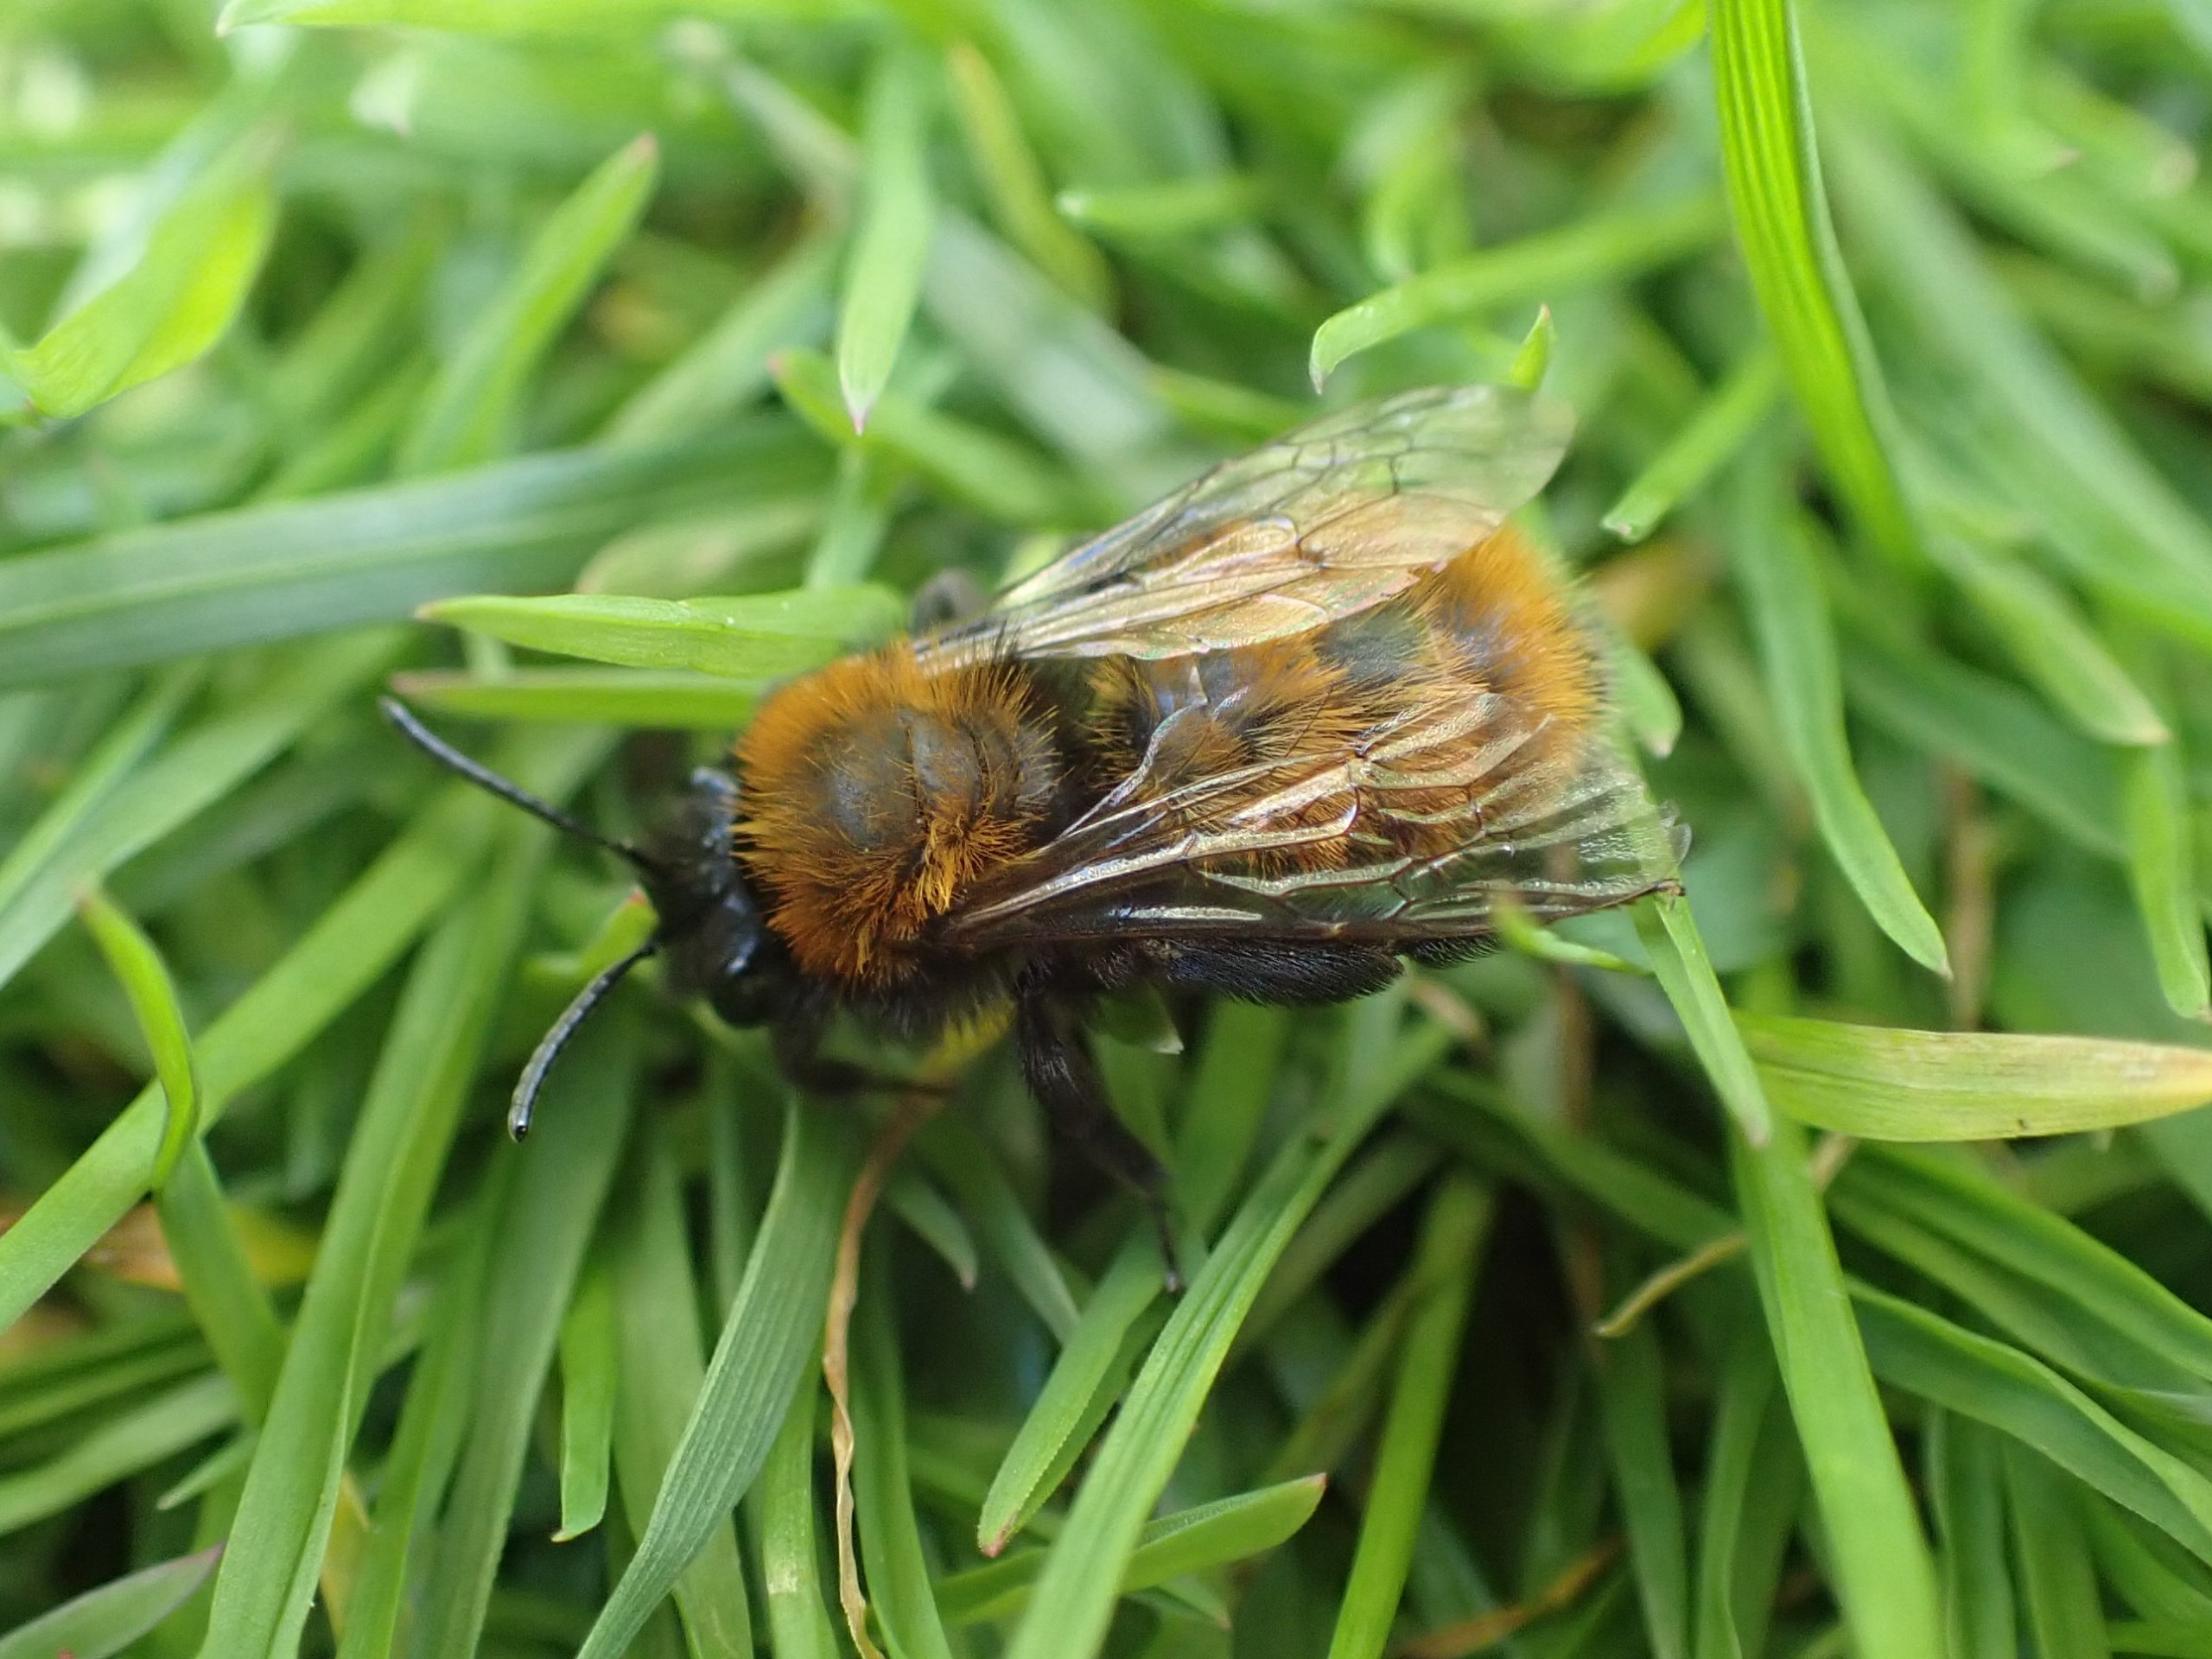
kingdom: Animalia
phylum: Arthropoda
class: Insecta
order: Hymenoptera
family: Andrenidae
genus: Andrena
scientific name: Andrena fulva
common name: Rødpelset jordbi
